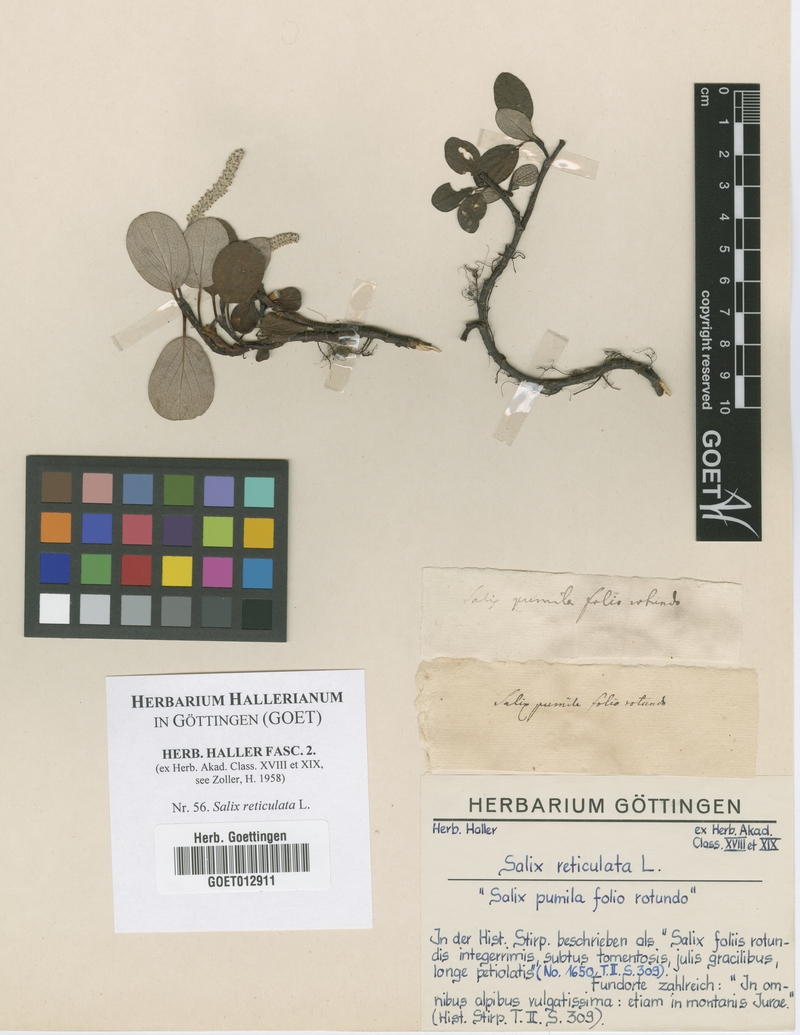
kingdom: Plantae
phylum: Tracheophyta
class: Magnoliopsida
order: Malpighiales
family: Salicaceae
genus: Salix
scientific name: Salix reticulata
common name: Net-leaved willow
